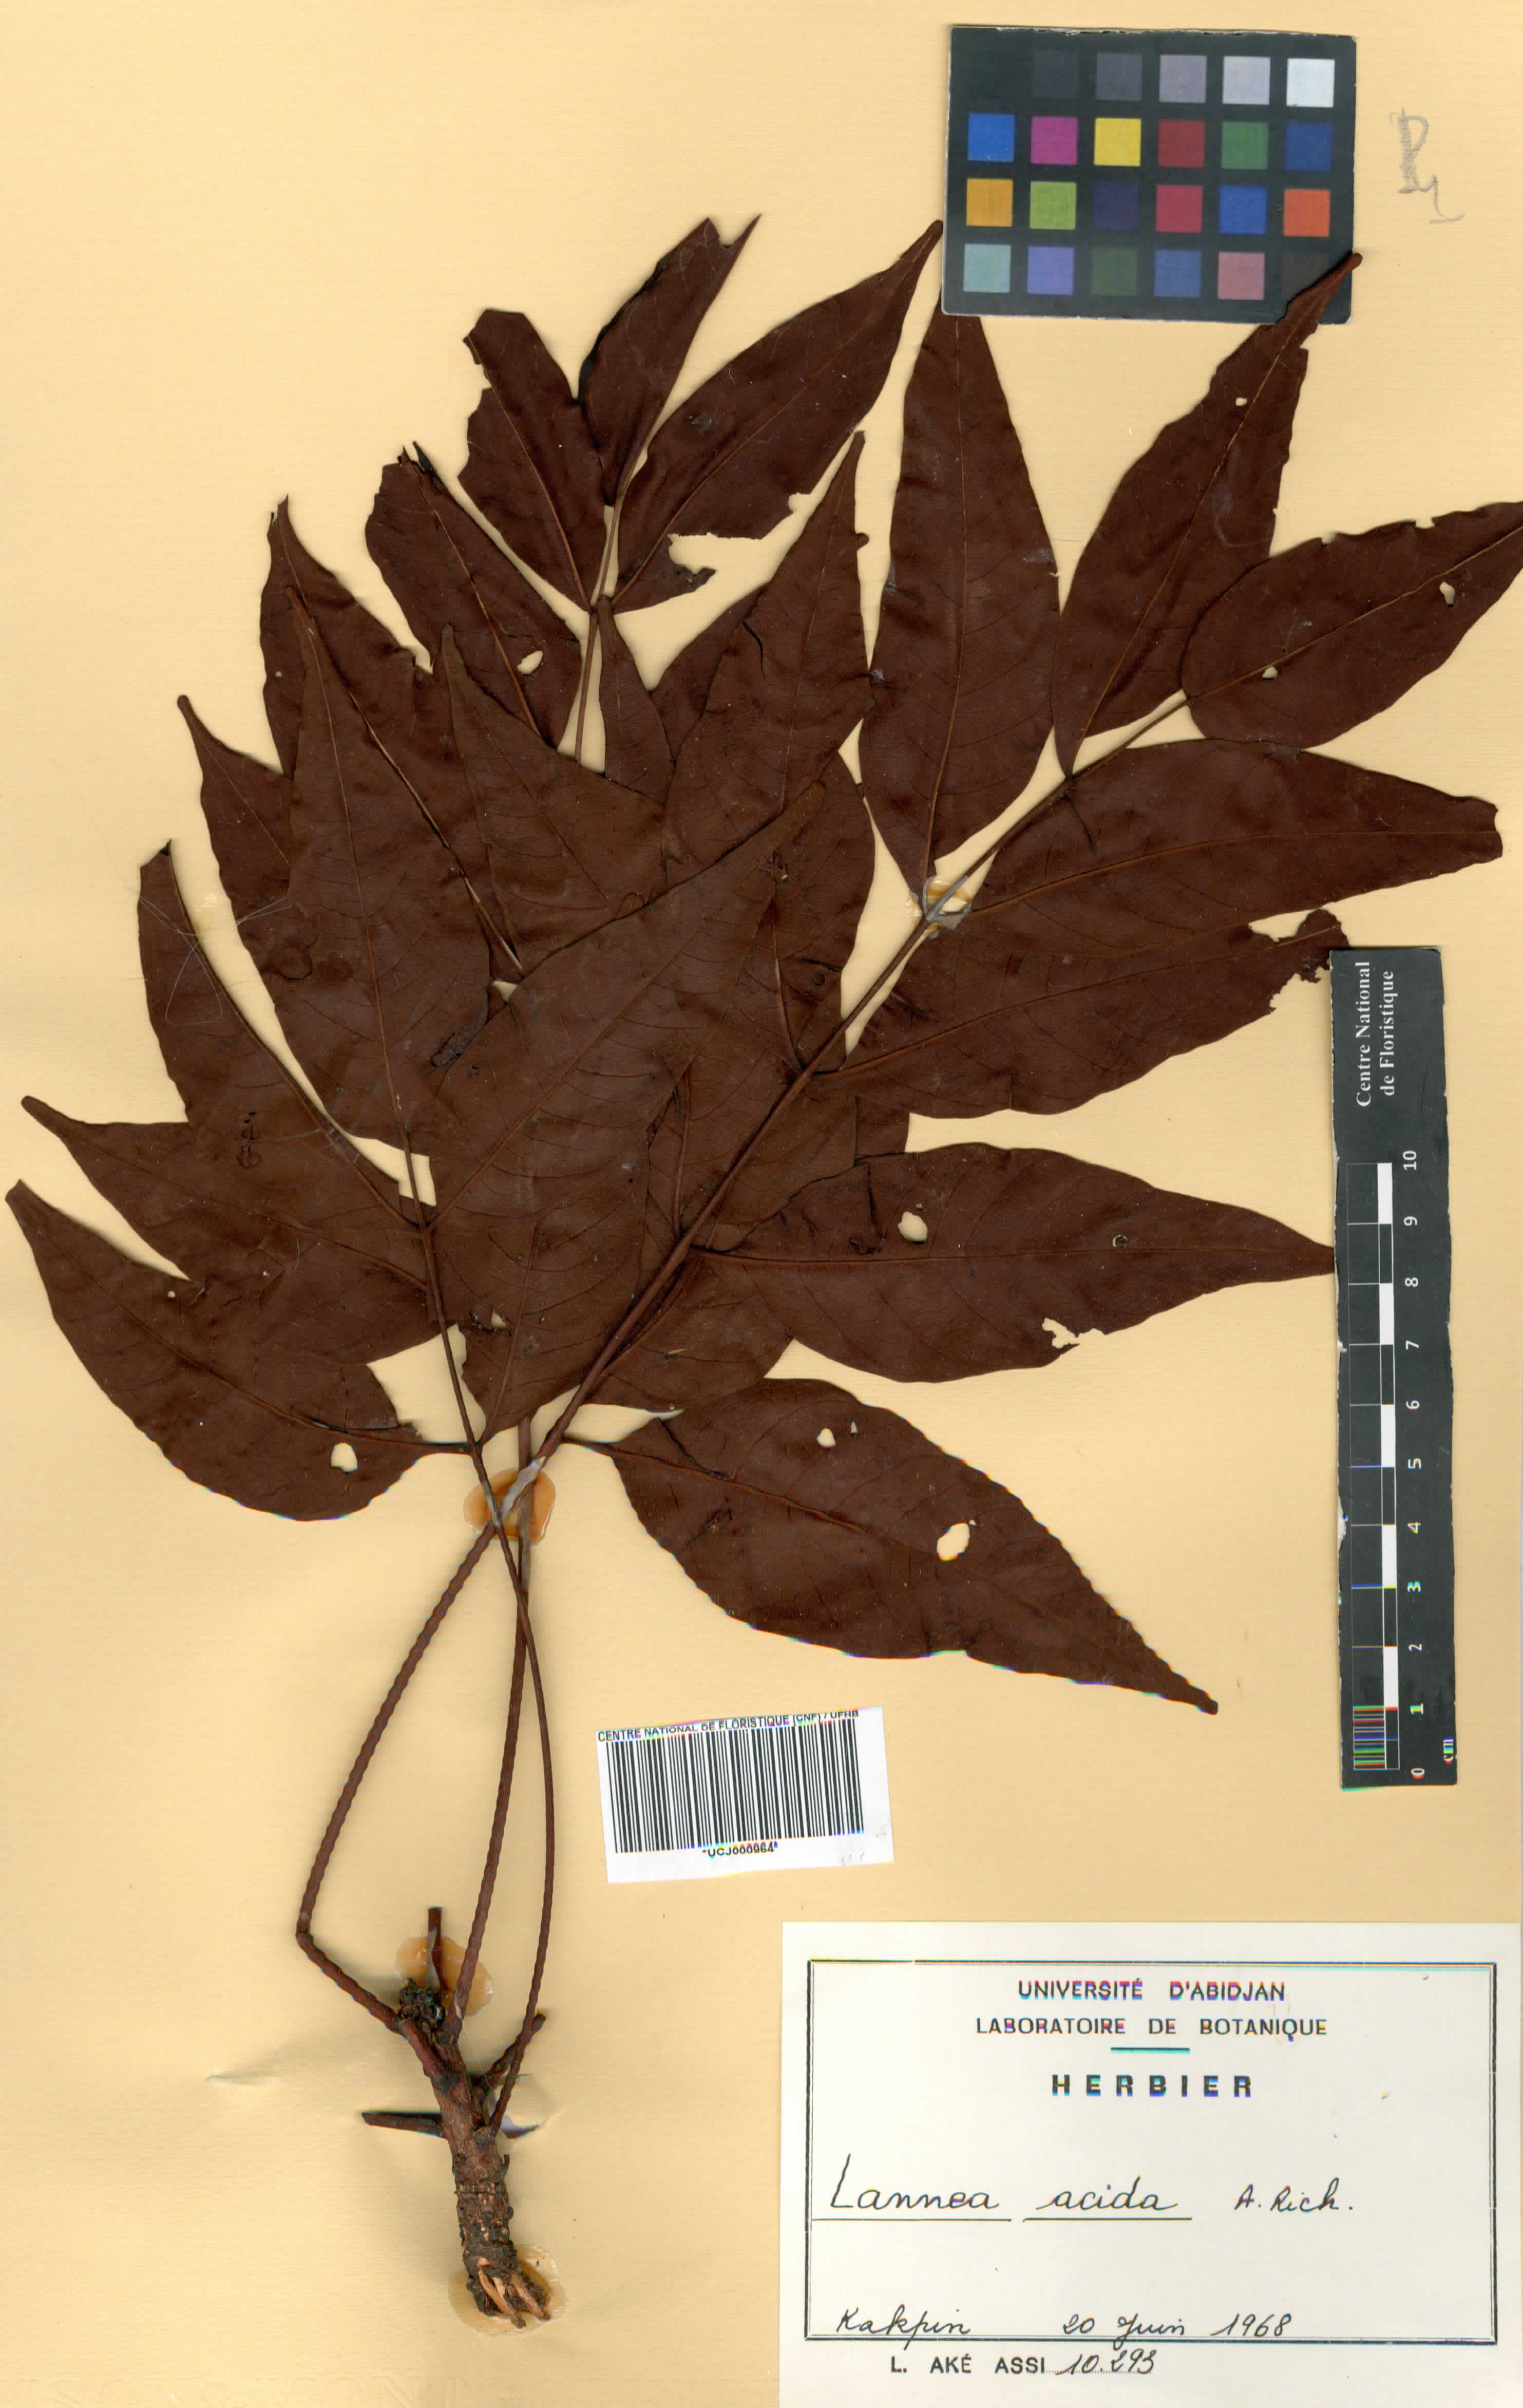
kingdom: Plantae
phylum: Tracheophyta
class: Magnoliopsida
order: Sapindales
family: Anacardiaceae
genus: Lannea
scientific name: Lannea acida
